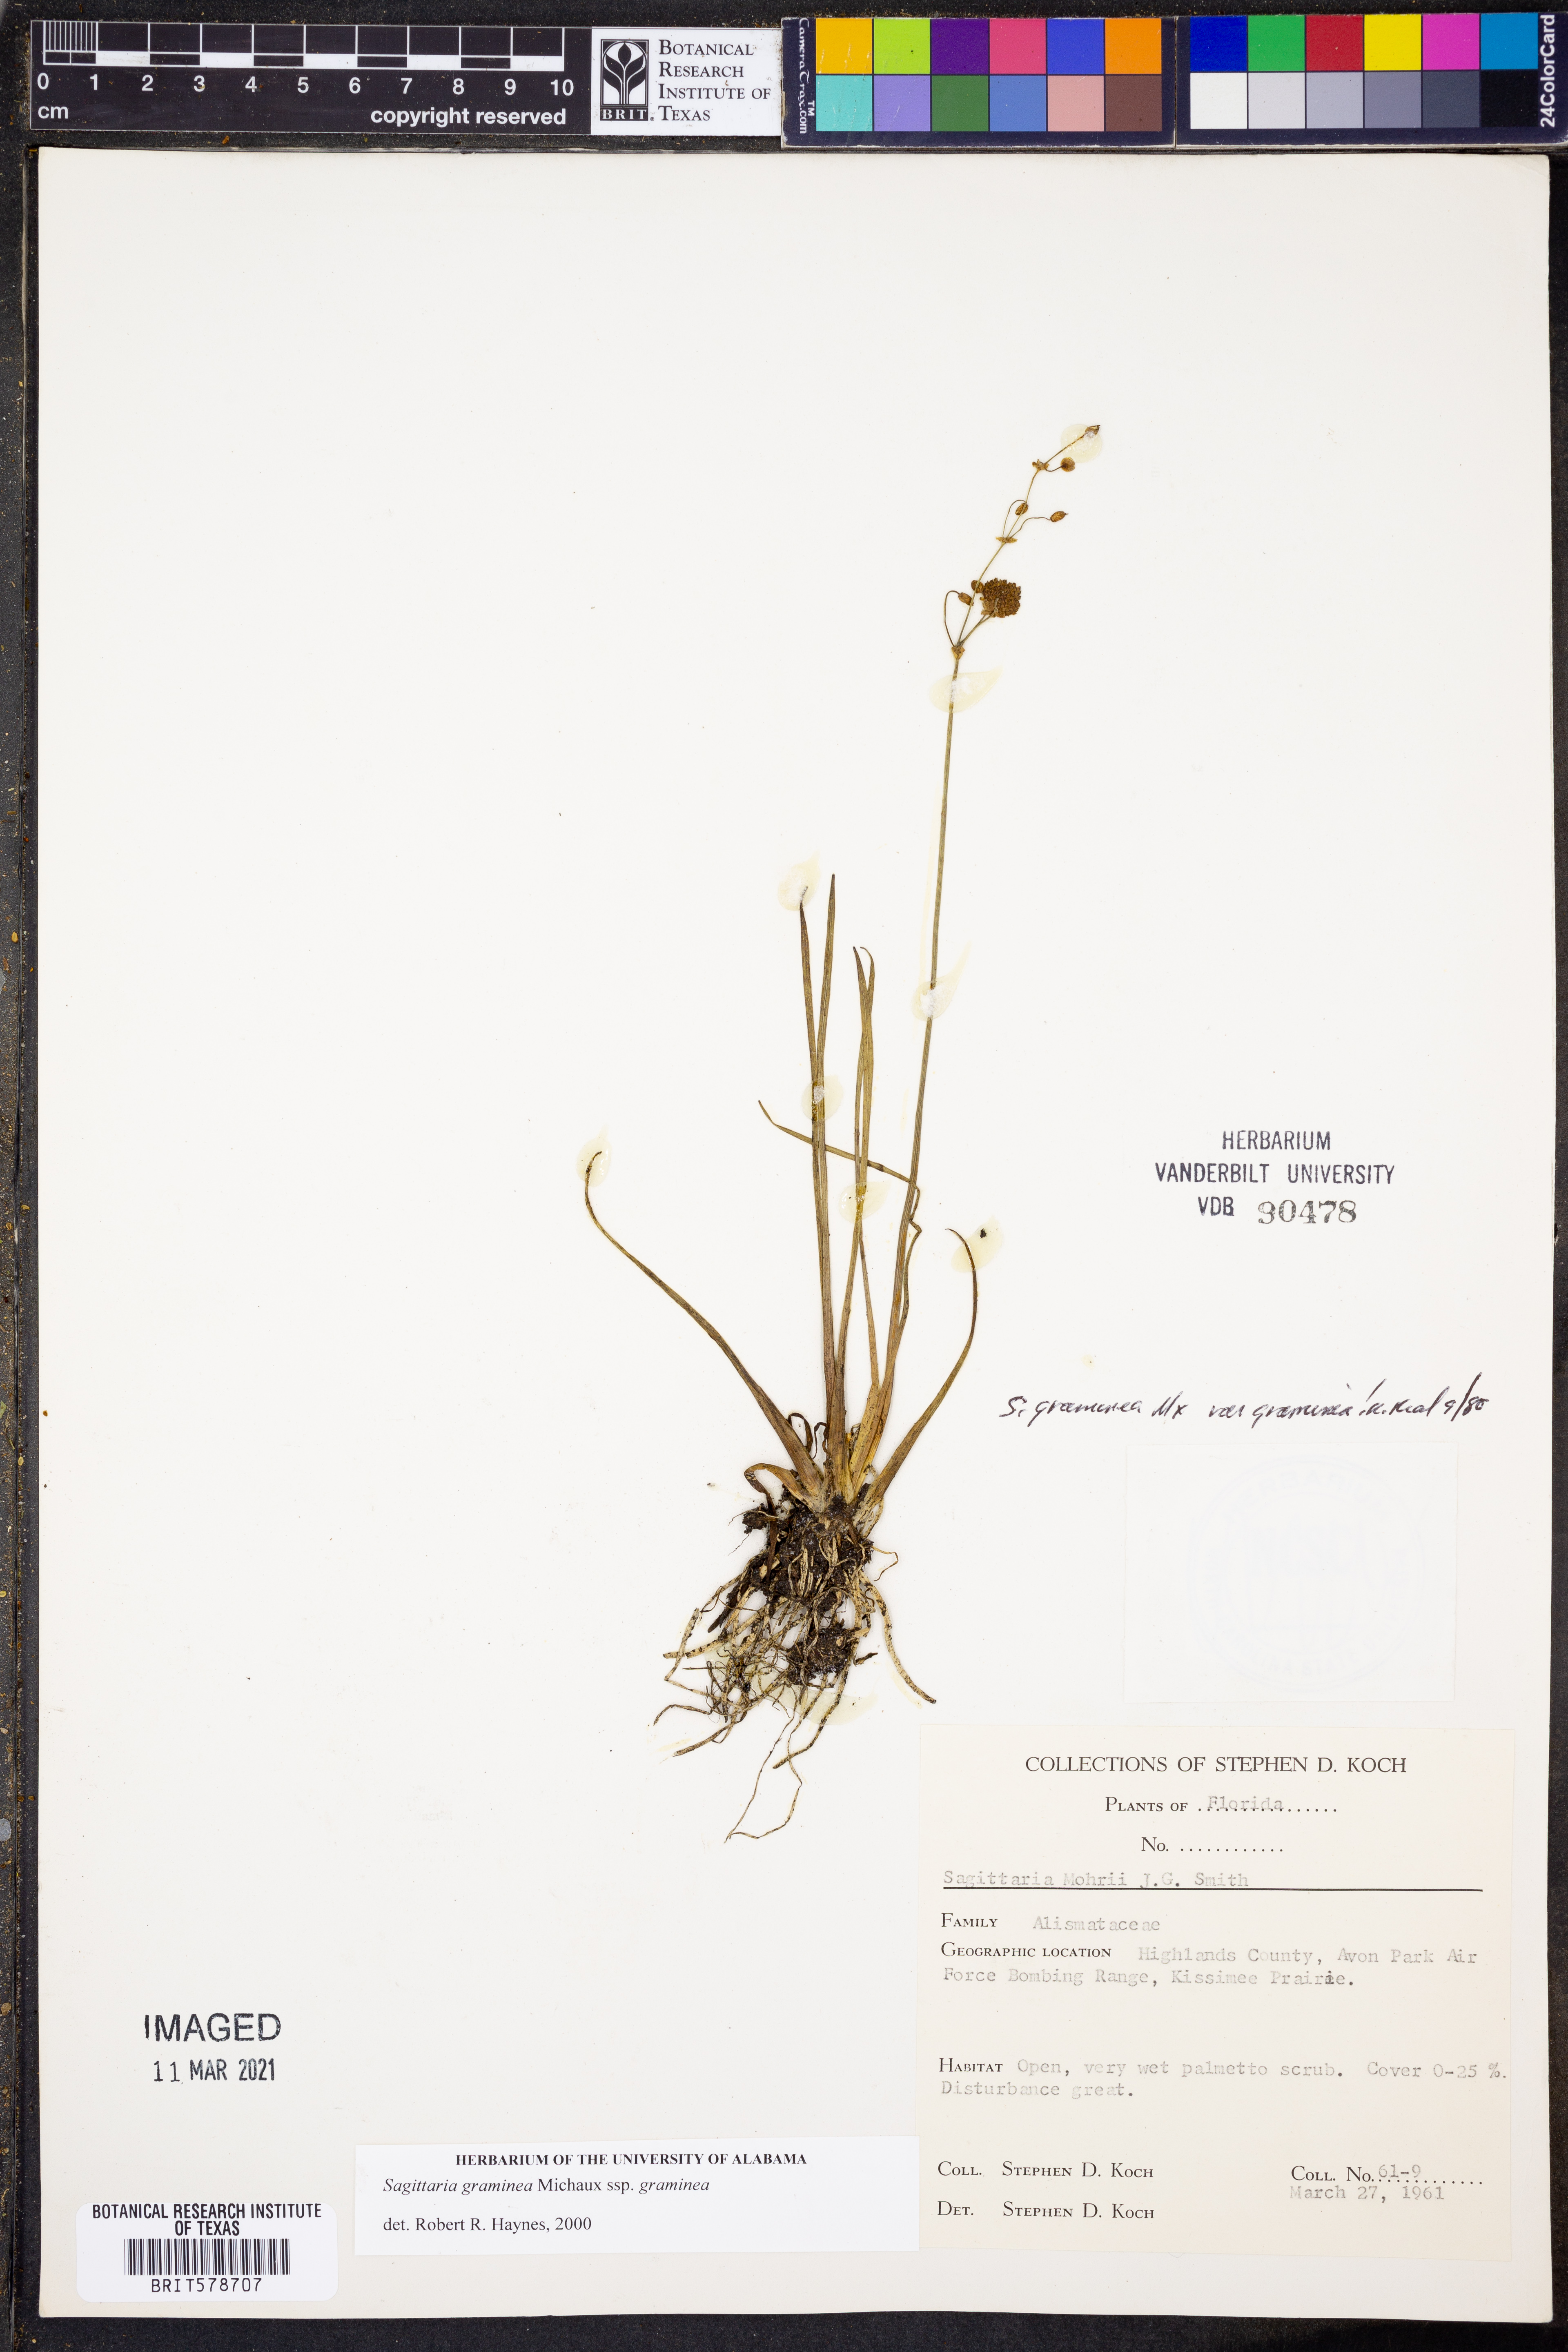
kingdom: Plantae
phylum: Tracheophyta
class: Liliopsida
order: Alismatales
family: Alismataceae
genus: Sagittaria
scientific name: Sagittaria graminea
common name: Grass-leaved arrowhead
